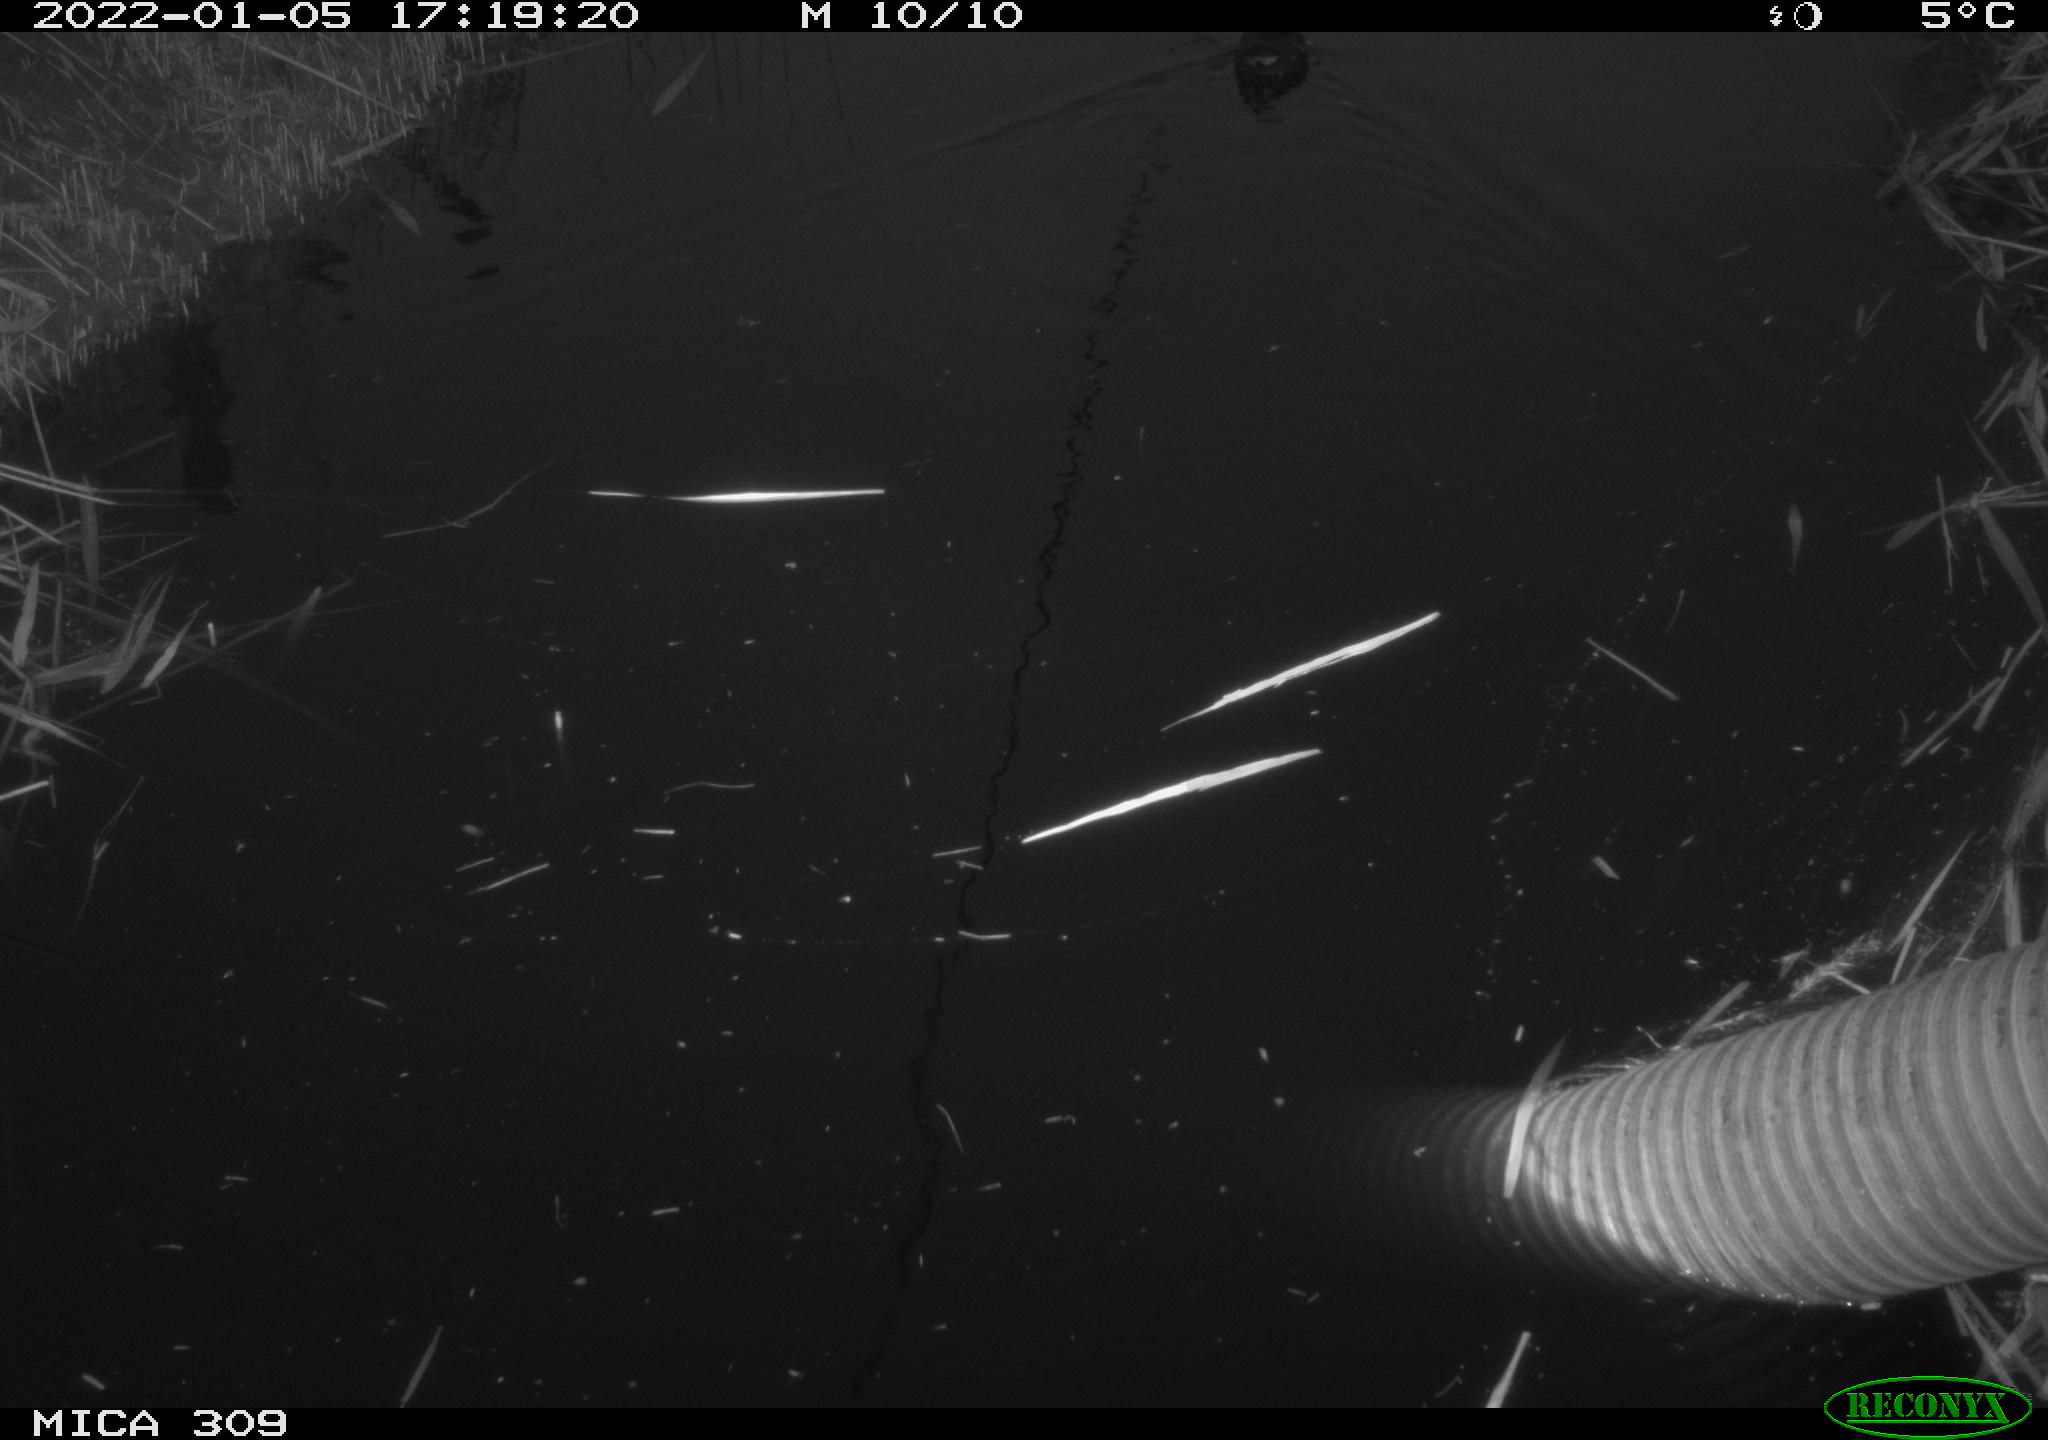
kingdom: Animalia
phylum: Chordata
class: Aves
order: Gruiformes
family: Rallidae
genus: Gallinula
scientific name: Gallinula chloropus
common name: Common moorhen
